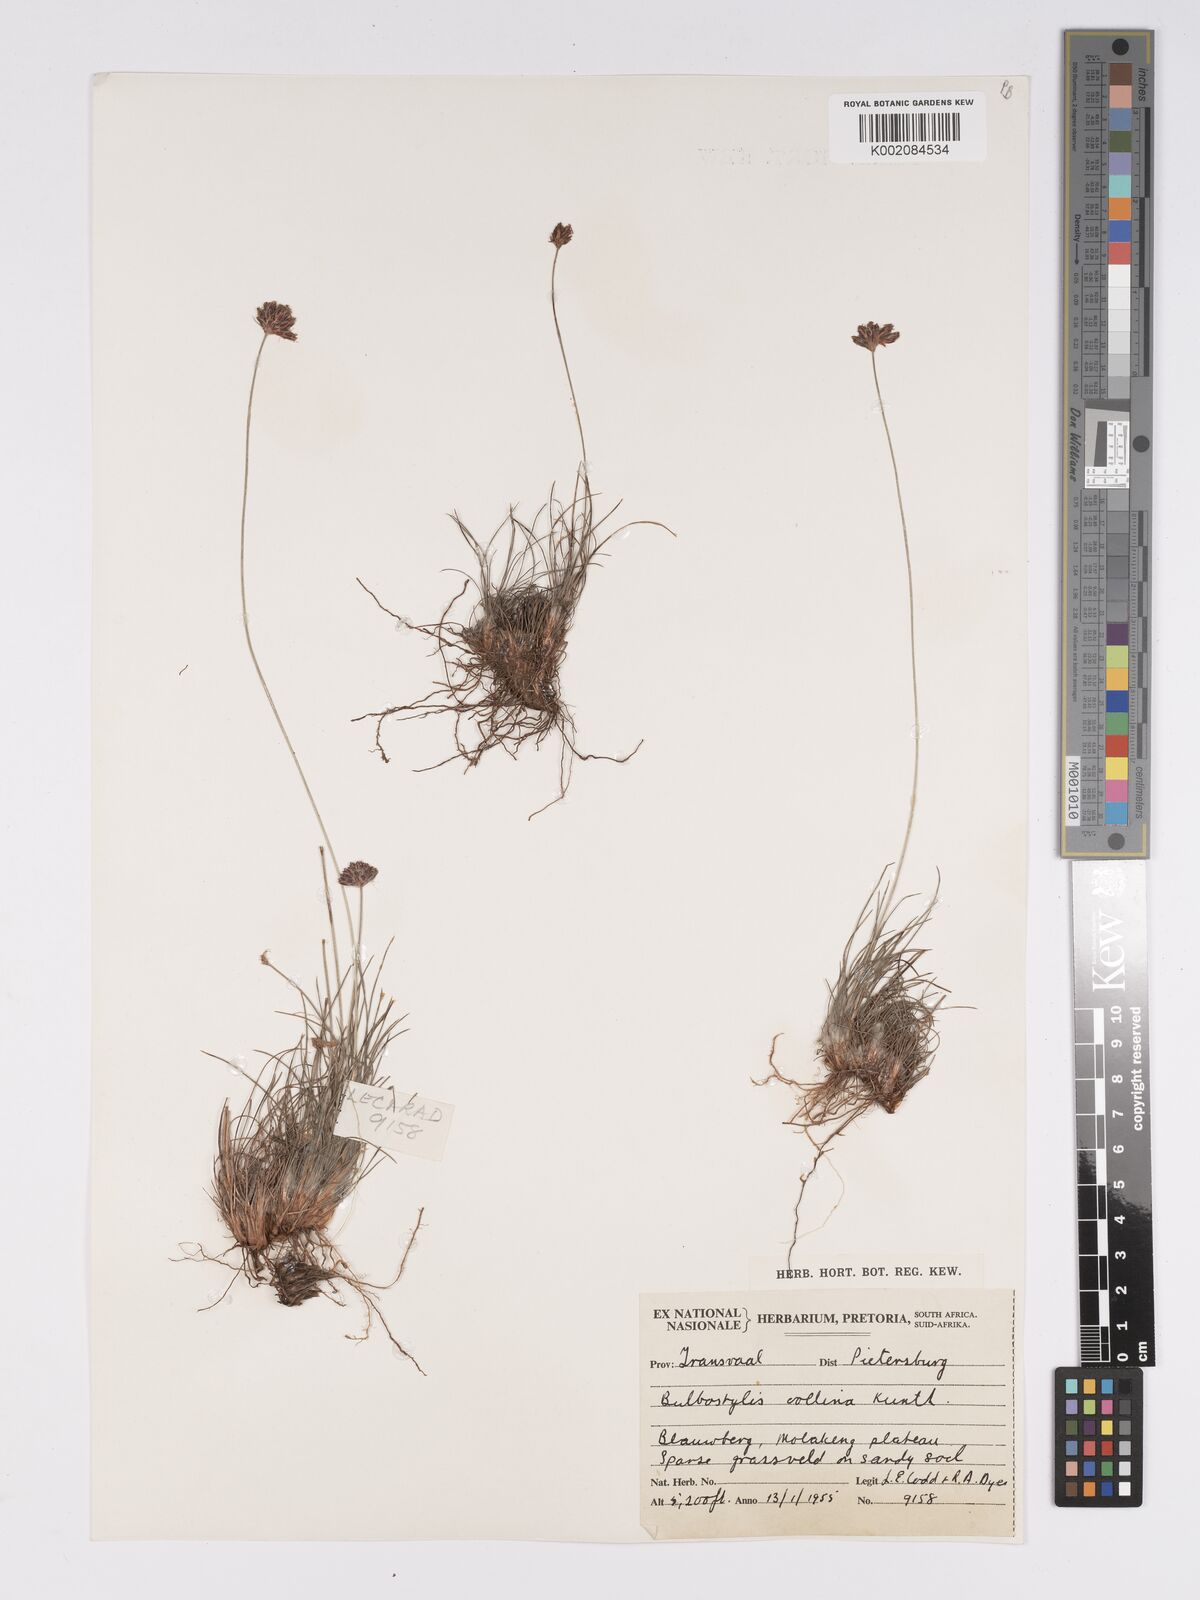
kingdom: Plantae
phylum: Tracheophyta
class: Liliopsida
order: Poales
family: Cyperaceae
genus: Bulbostylis
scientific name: Bulbostylis contexta
